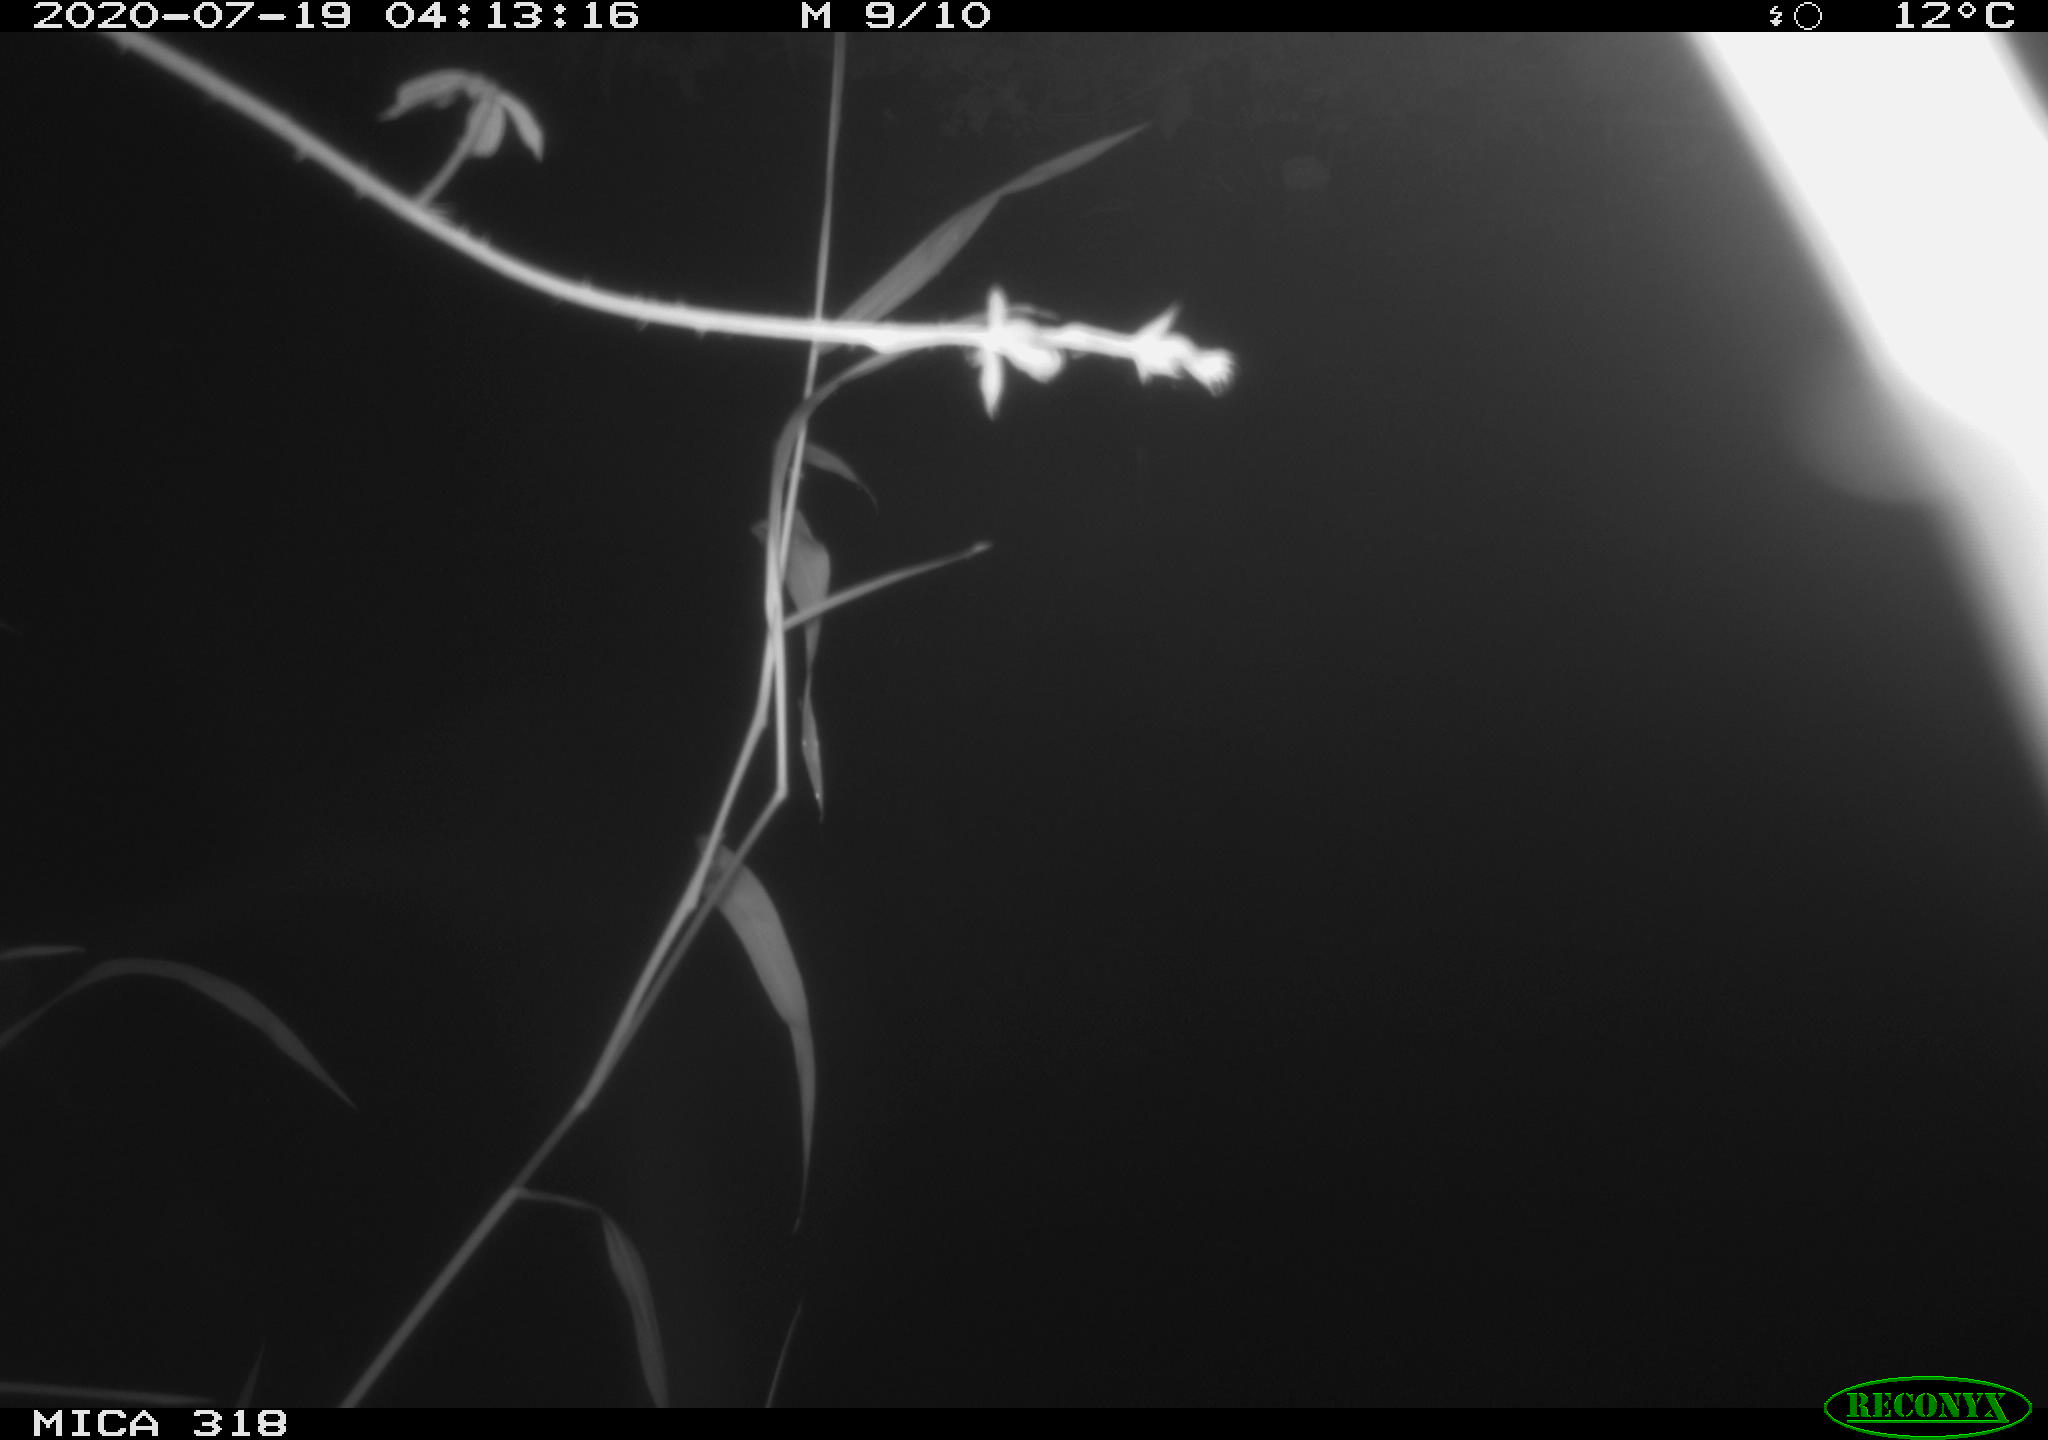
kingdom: Animalia
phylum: Chordata
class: Aves
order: Anseriformes
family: Anatidae
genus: Anas
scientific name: Anas platyrhynchos
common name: Mallard
